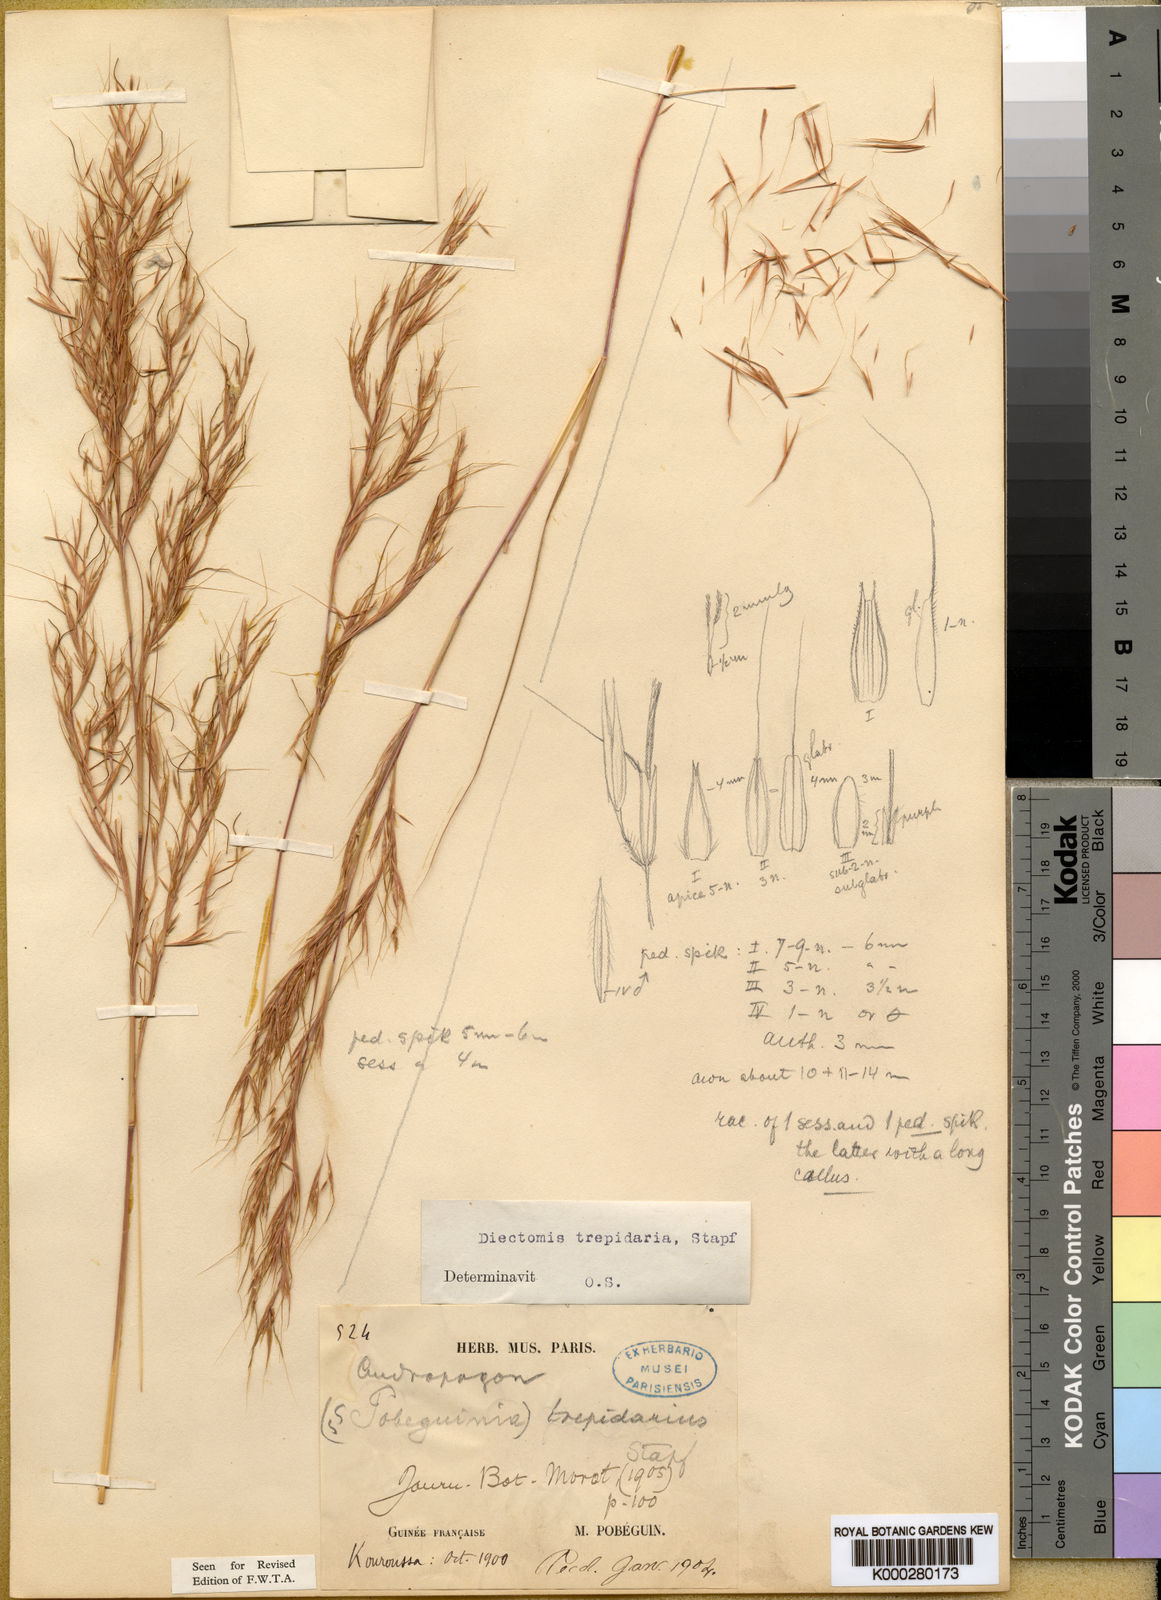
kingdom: Plantae
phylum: Tracheophyta
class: Liliopsida
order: Poales
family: Poaceae
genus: Anadelphia
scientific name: Anadelphia trepidaria
